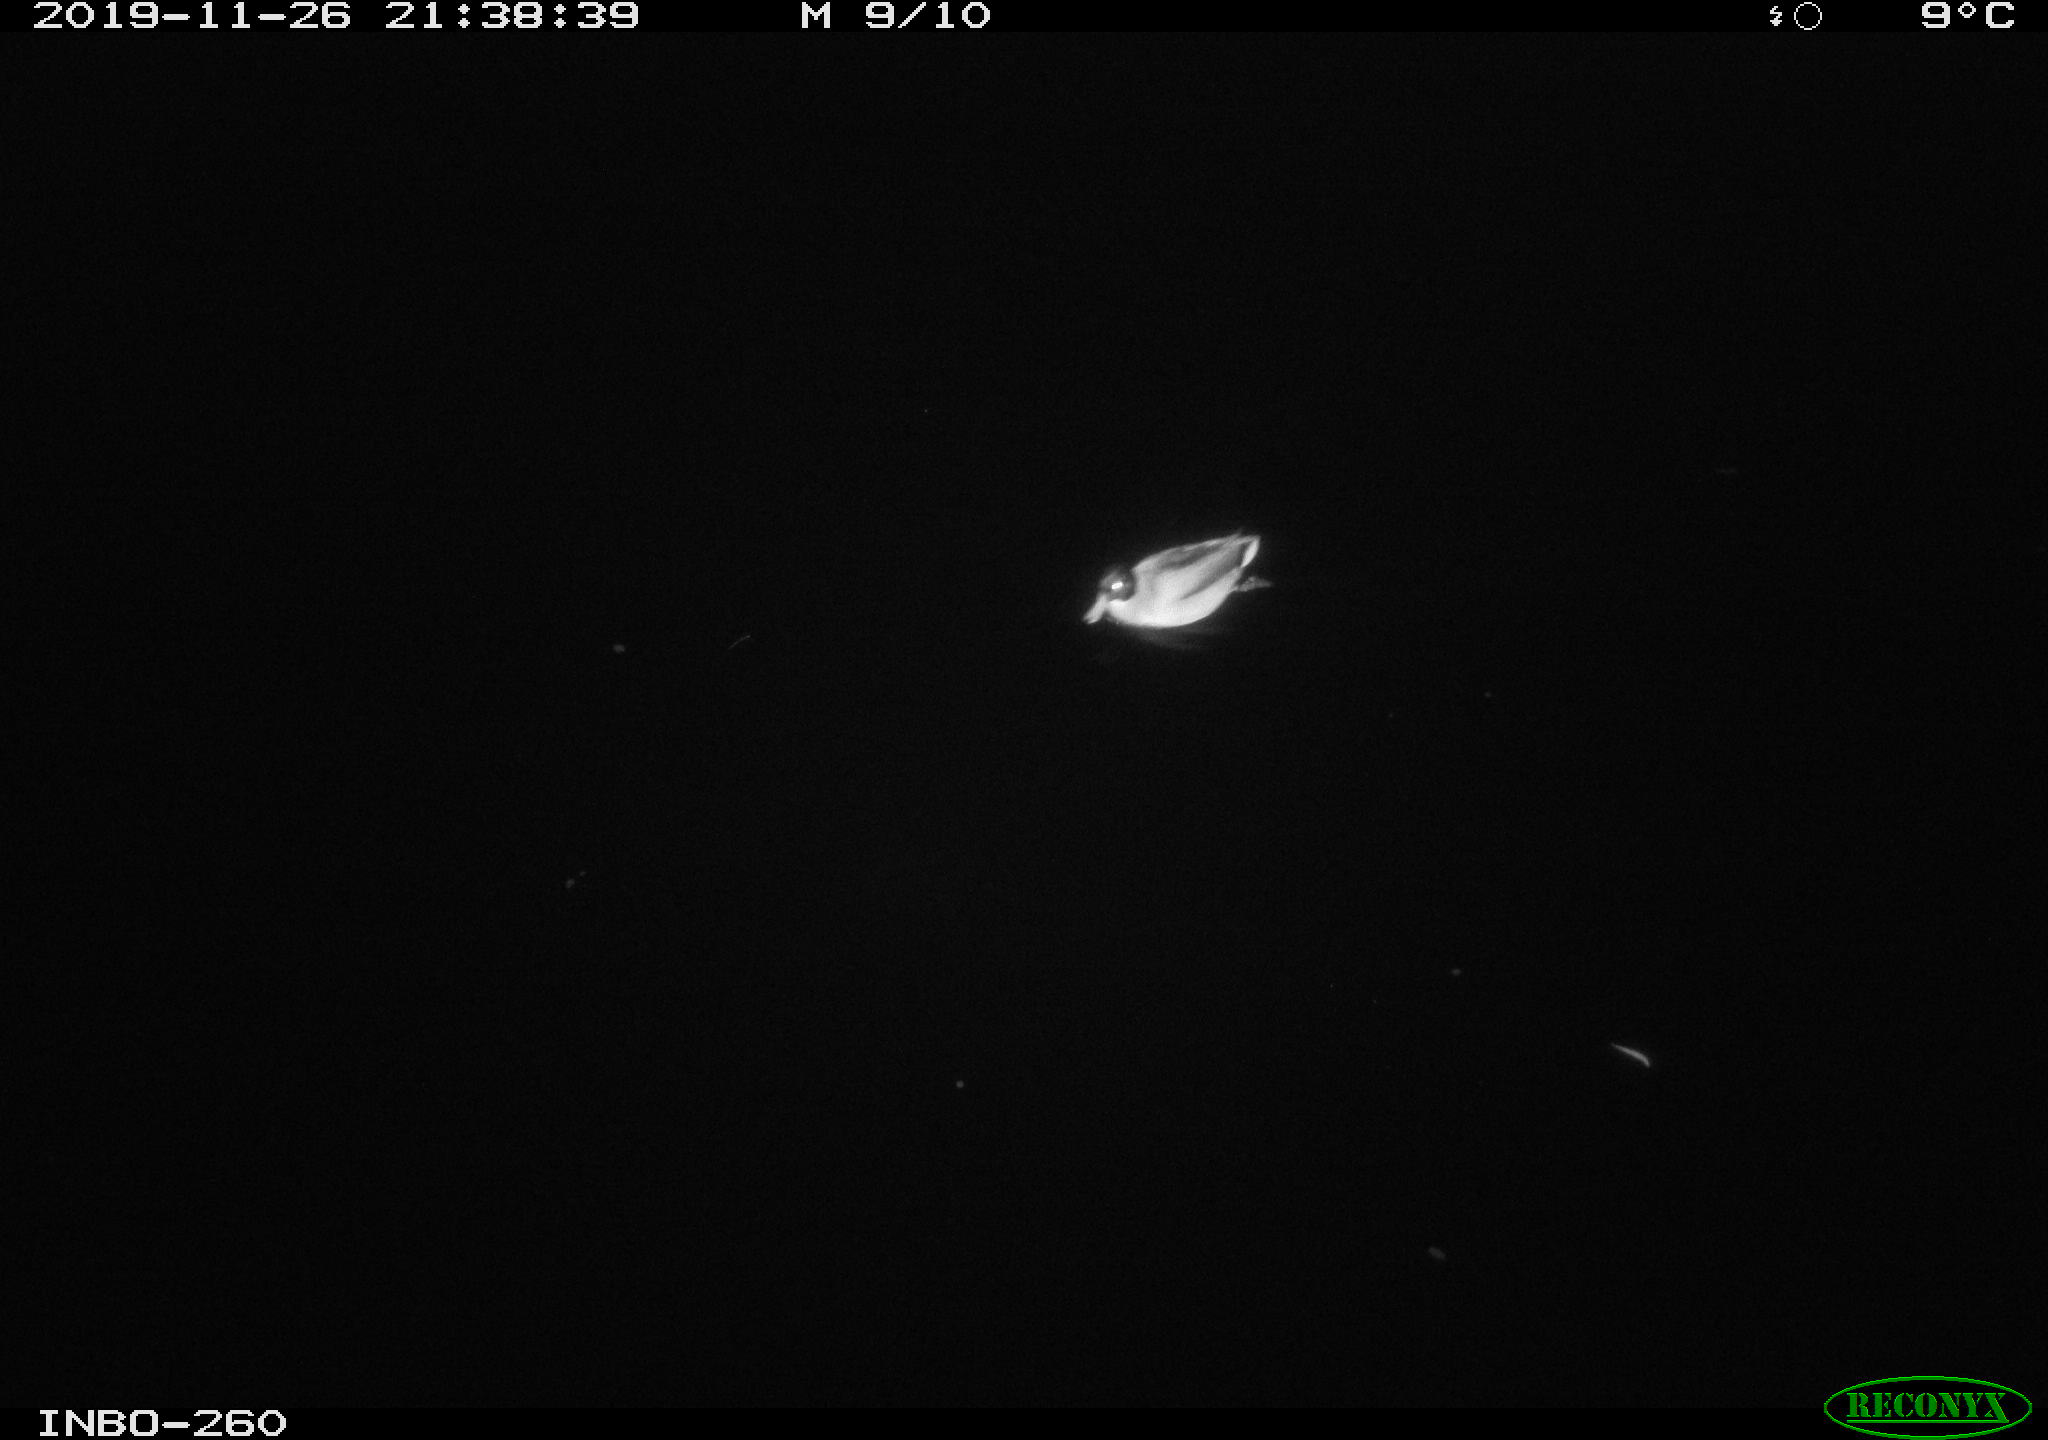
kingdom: Animalia
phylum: Chordata
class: Aves
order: Anseriformes
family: Anatidae
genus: Anas
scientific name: Anas platyrhynchos
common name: Mallard
